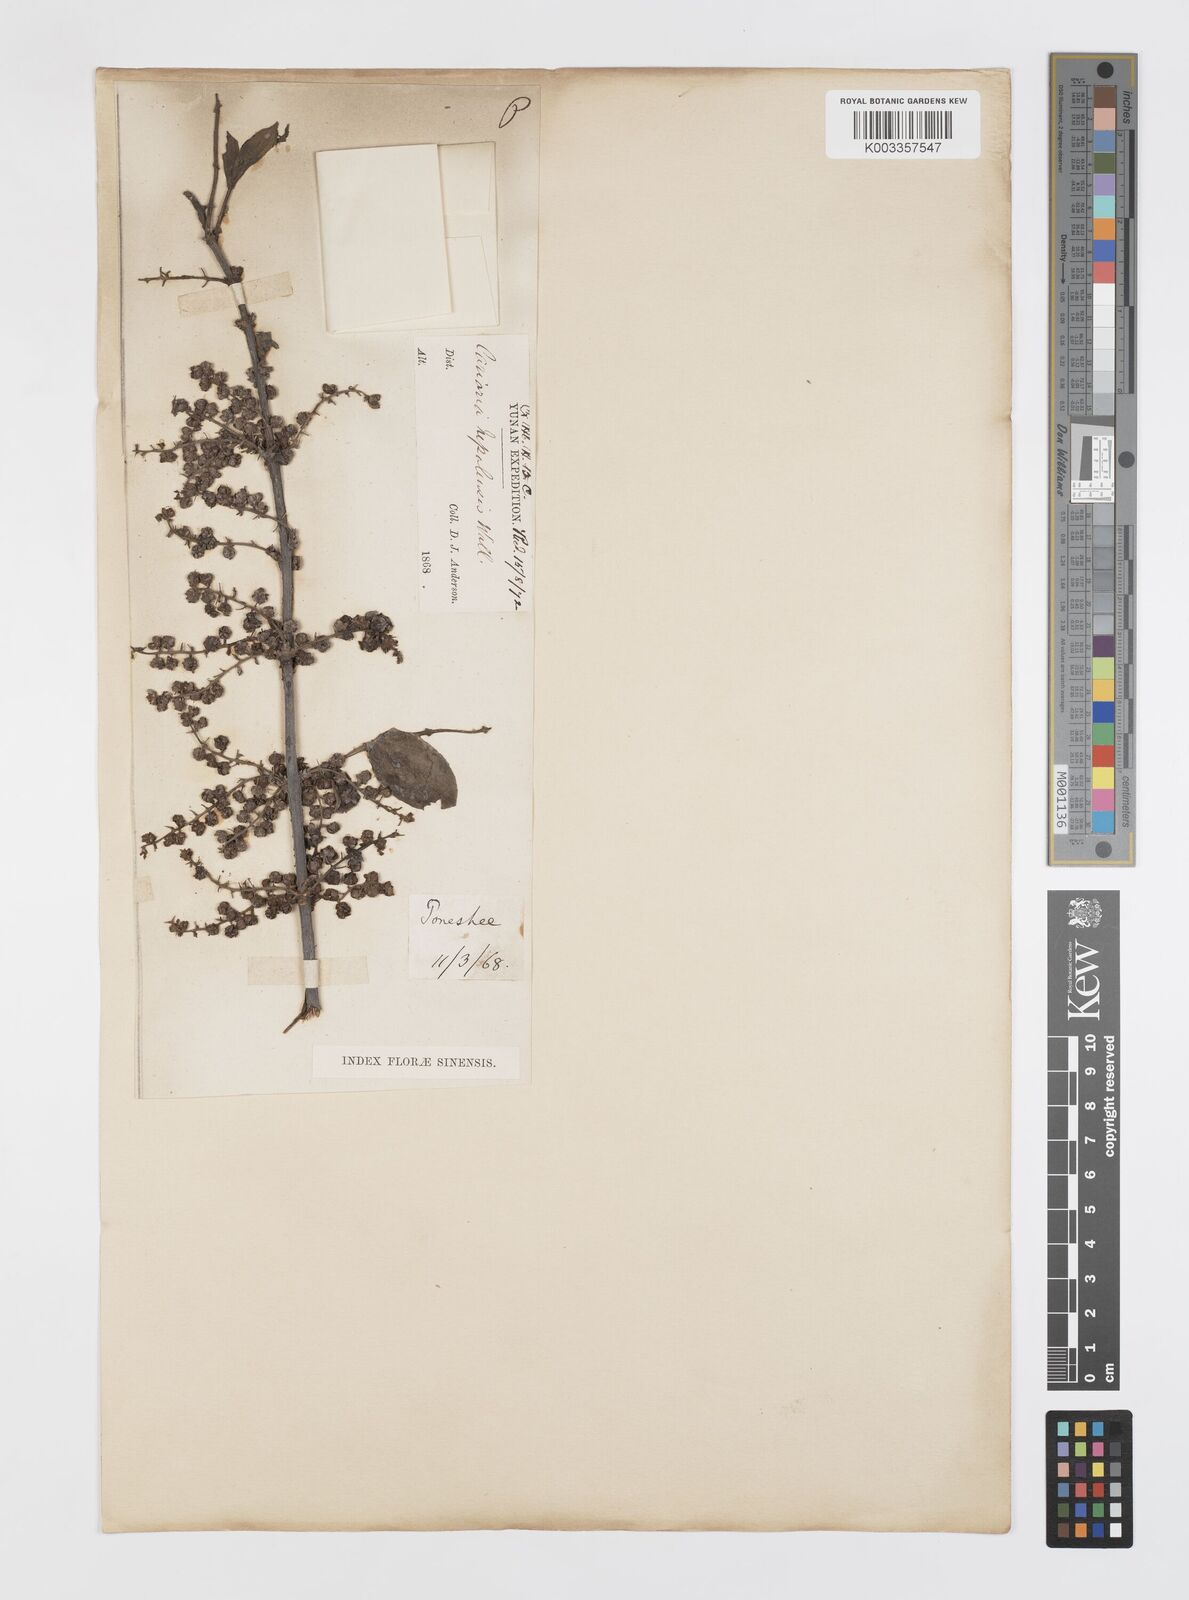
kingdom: Plantae
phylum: Tracheophyta
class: Magnoliopsida
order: Cucurbitales
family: Coriariaceae
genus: Coriaria
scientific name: Coriaria napalensis
